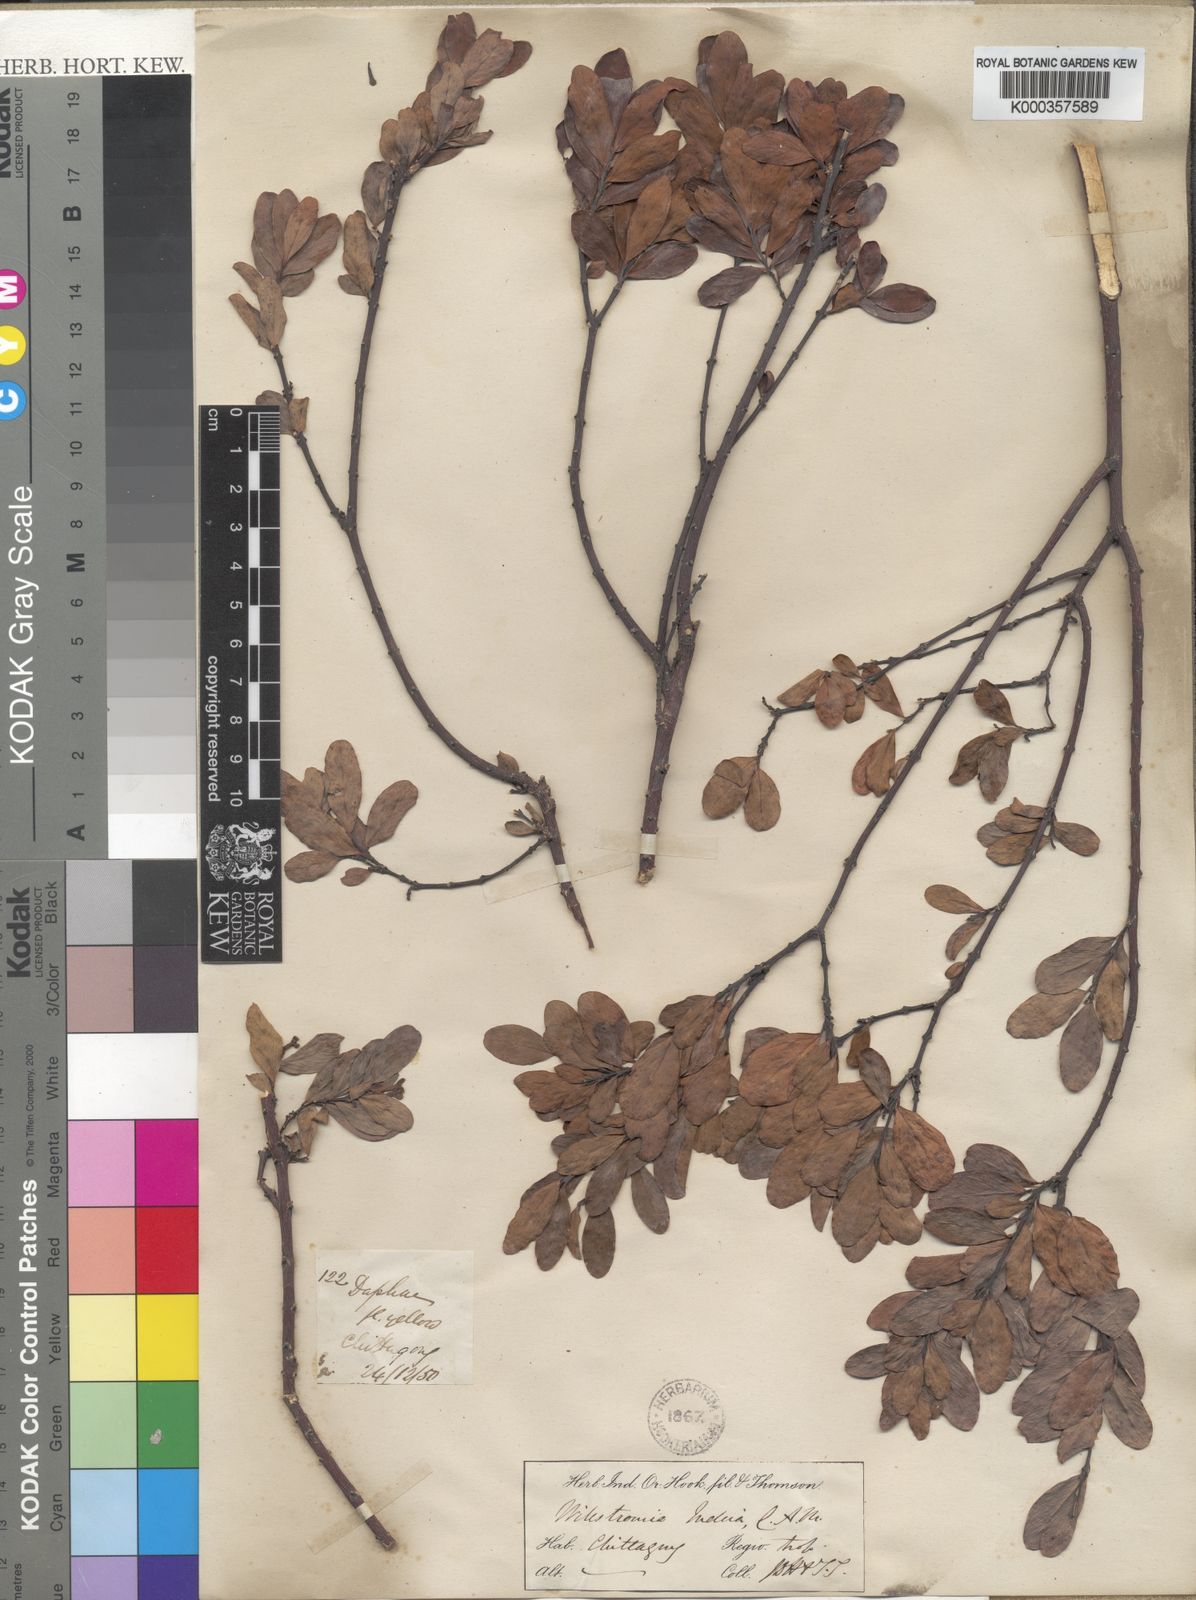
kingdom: Plantae
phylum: Tracheophyta
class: Magnoliopsida
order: Malvales
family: Thymelaeaceae
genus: Wikstroemia
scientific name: Wikstroemia indica
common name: Tiebush
